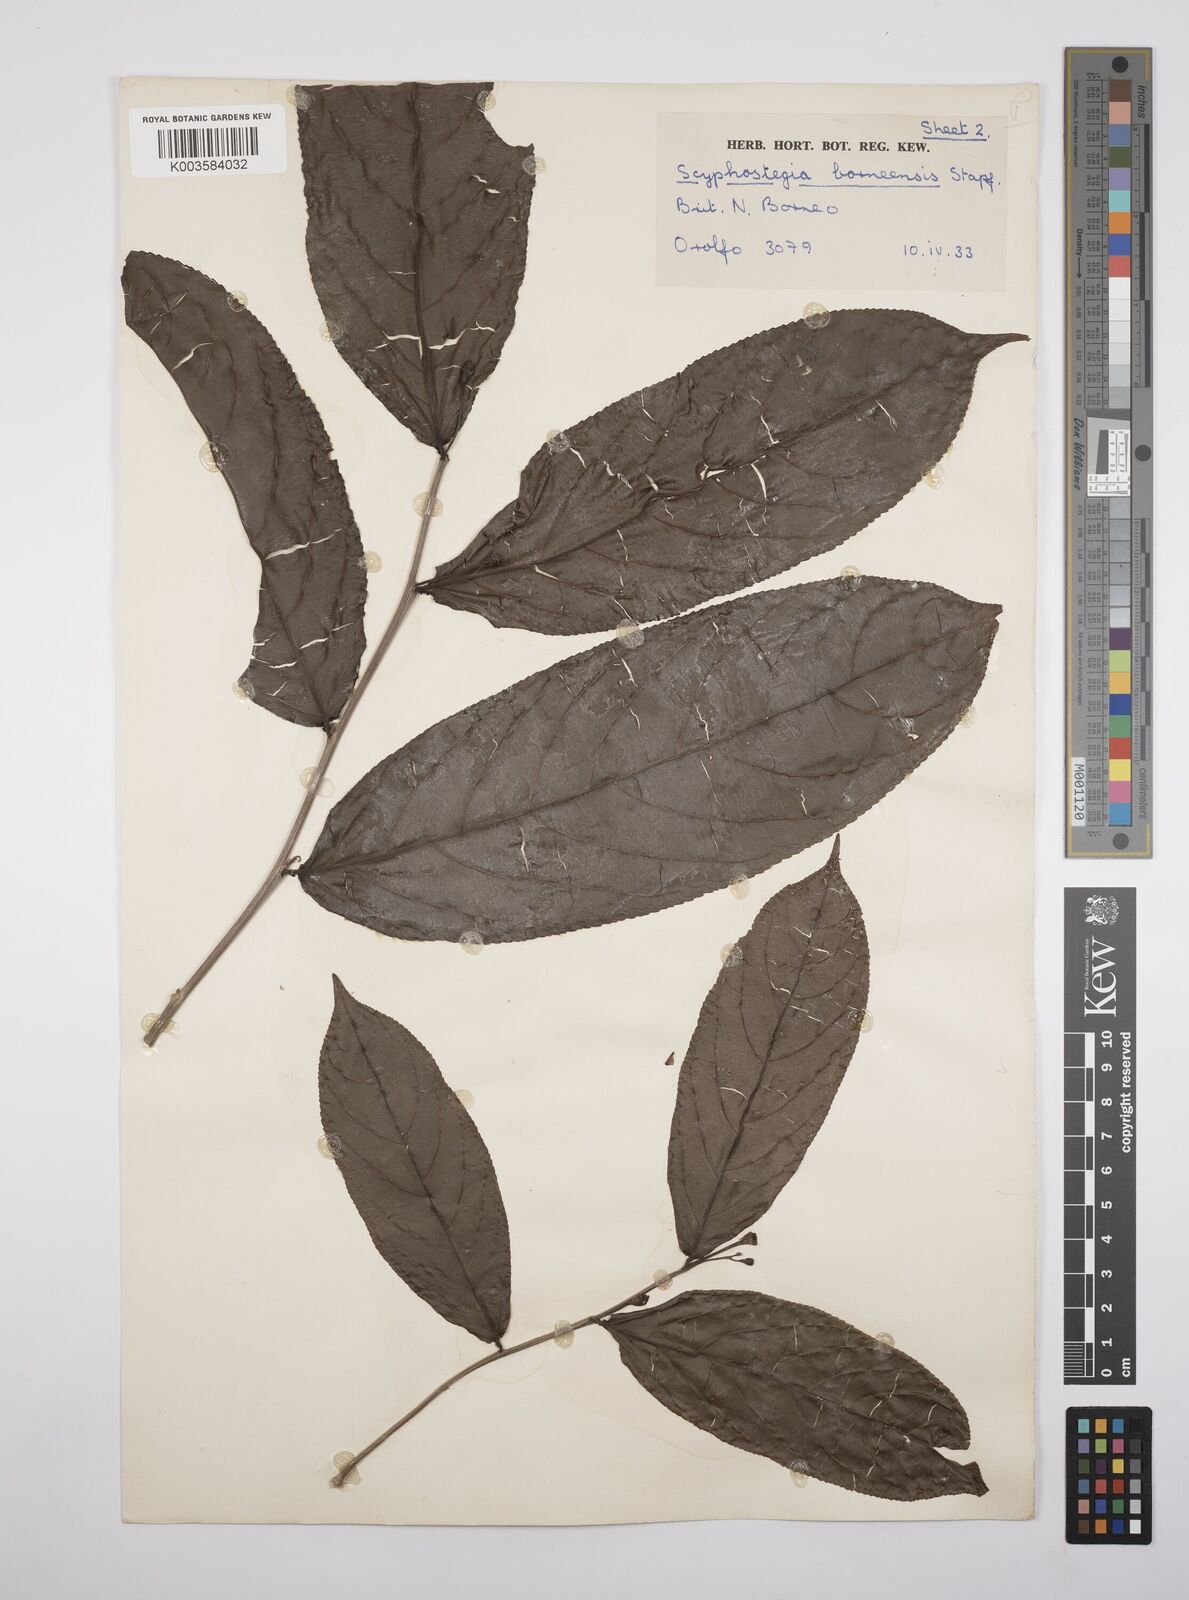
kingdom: Plantae
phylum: Tracheophyta
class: Magnoliopsida
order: Malpighiales
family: Salicaceae
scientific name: Salicaceae
